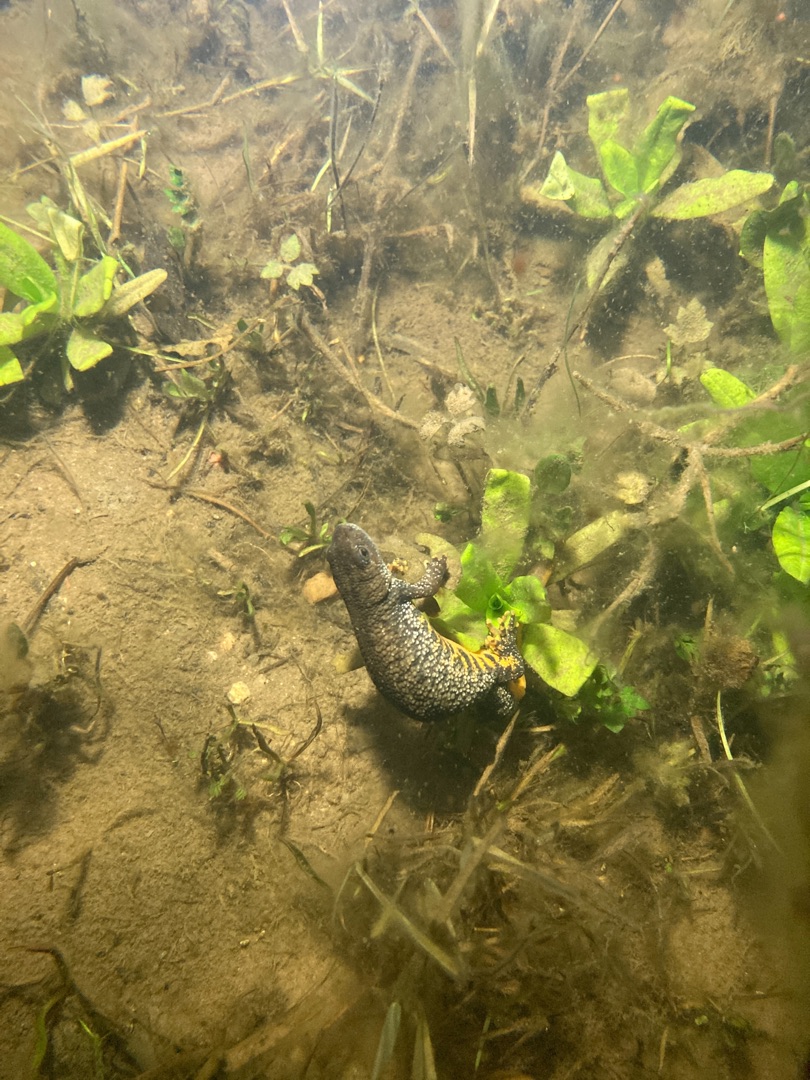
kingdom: Animalia
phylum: Chordata
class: Amphibia
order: Caudata
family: Salamandridae
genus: Triturus
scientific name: Triturus cristatus
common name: Stor vandsalamander
